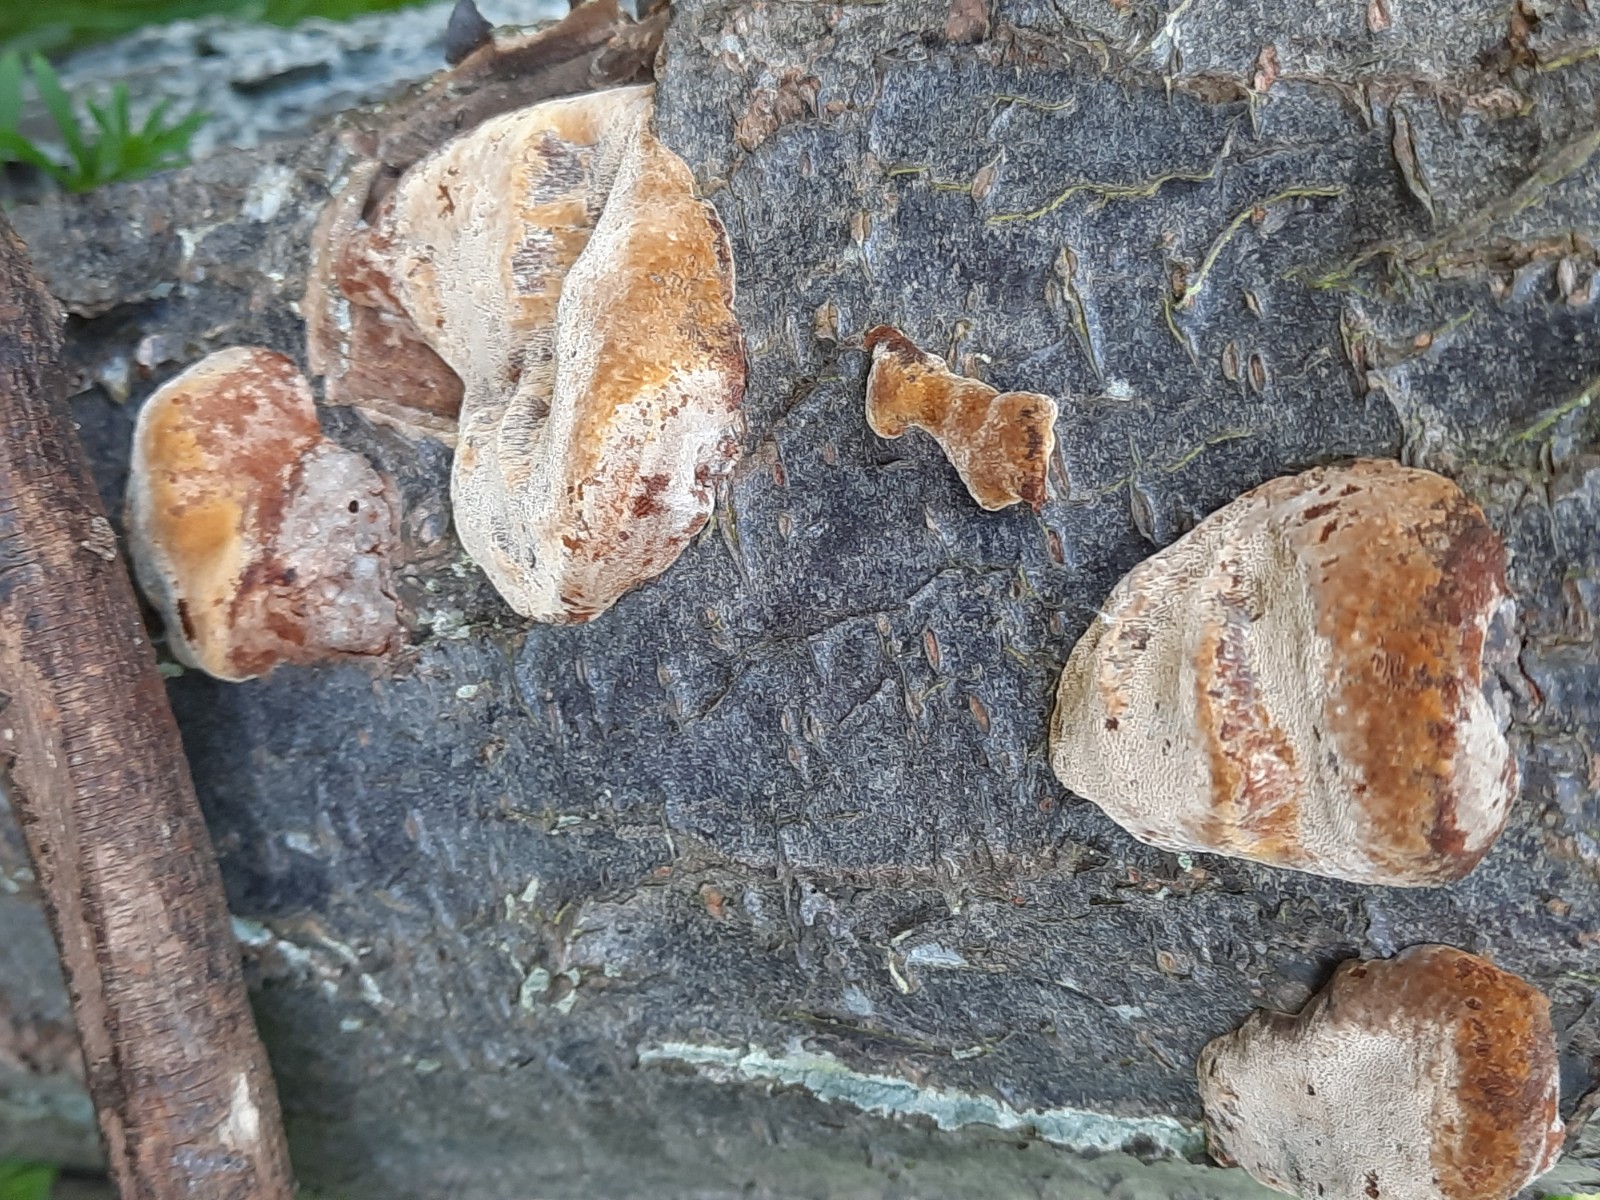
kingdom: Fungi
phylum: Basidiomycota
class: Agaricomycetes
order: Hymenochaetales
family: Hymenochaetaceae
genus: Phellinus
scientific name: Phellinus pomaceus
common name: blomme-ildporesvamp
